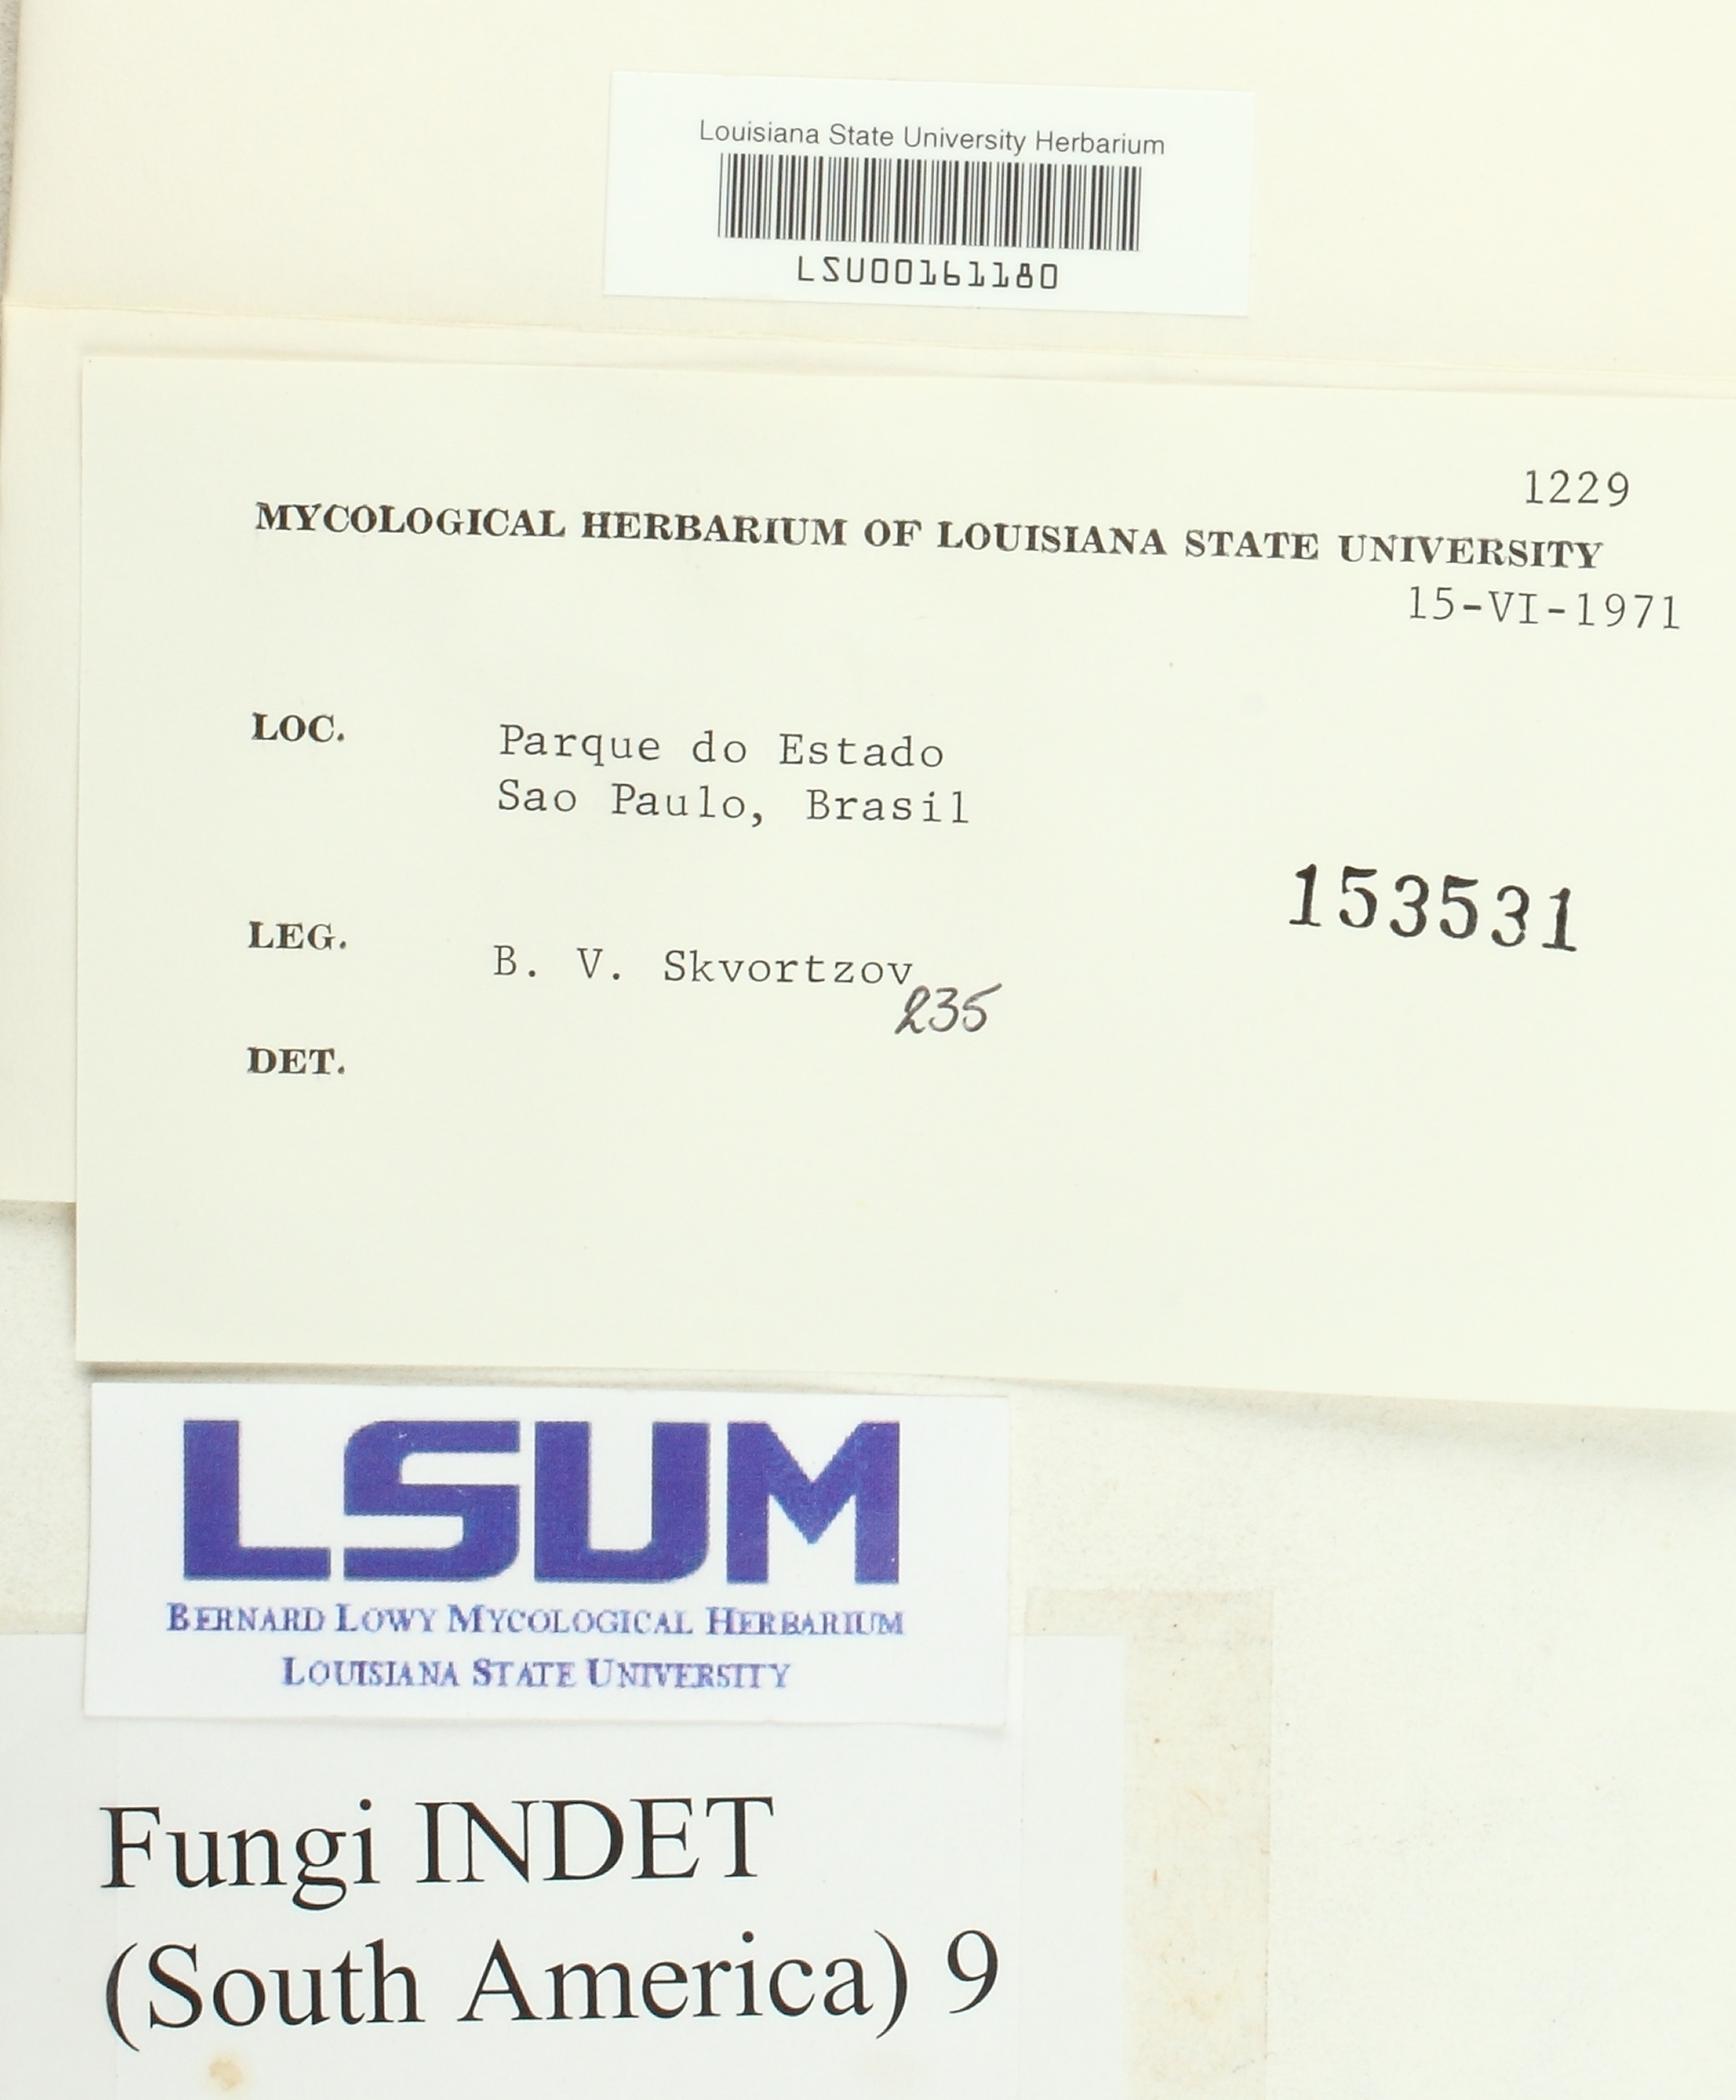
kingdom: Fungi
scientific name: Fungi
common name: Fungi
